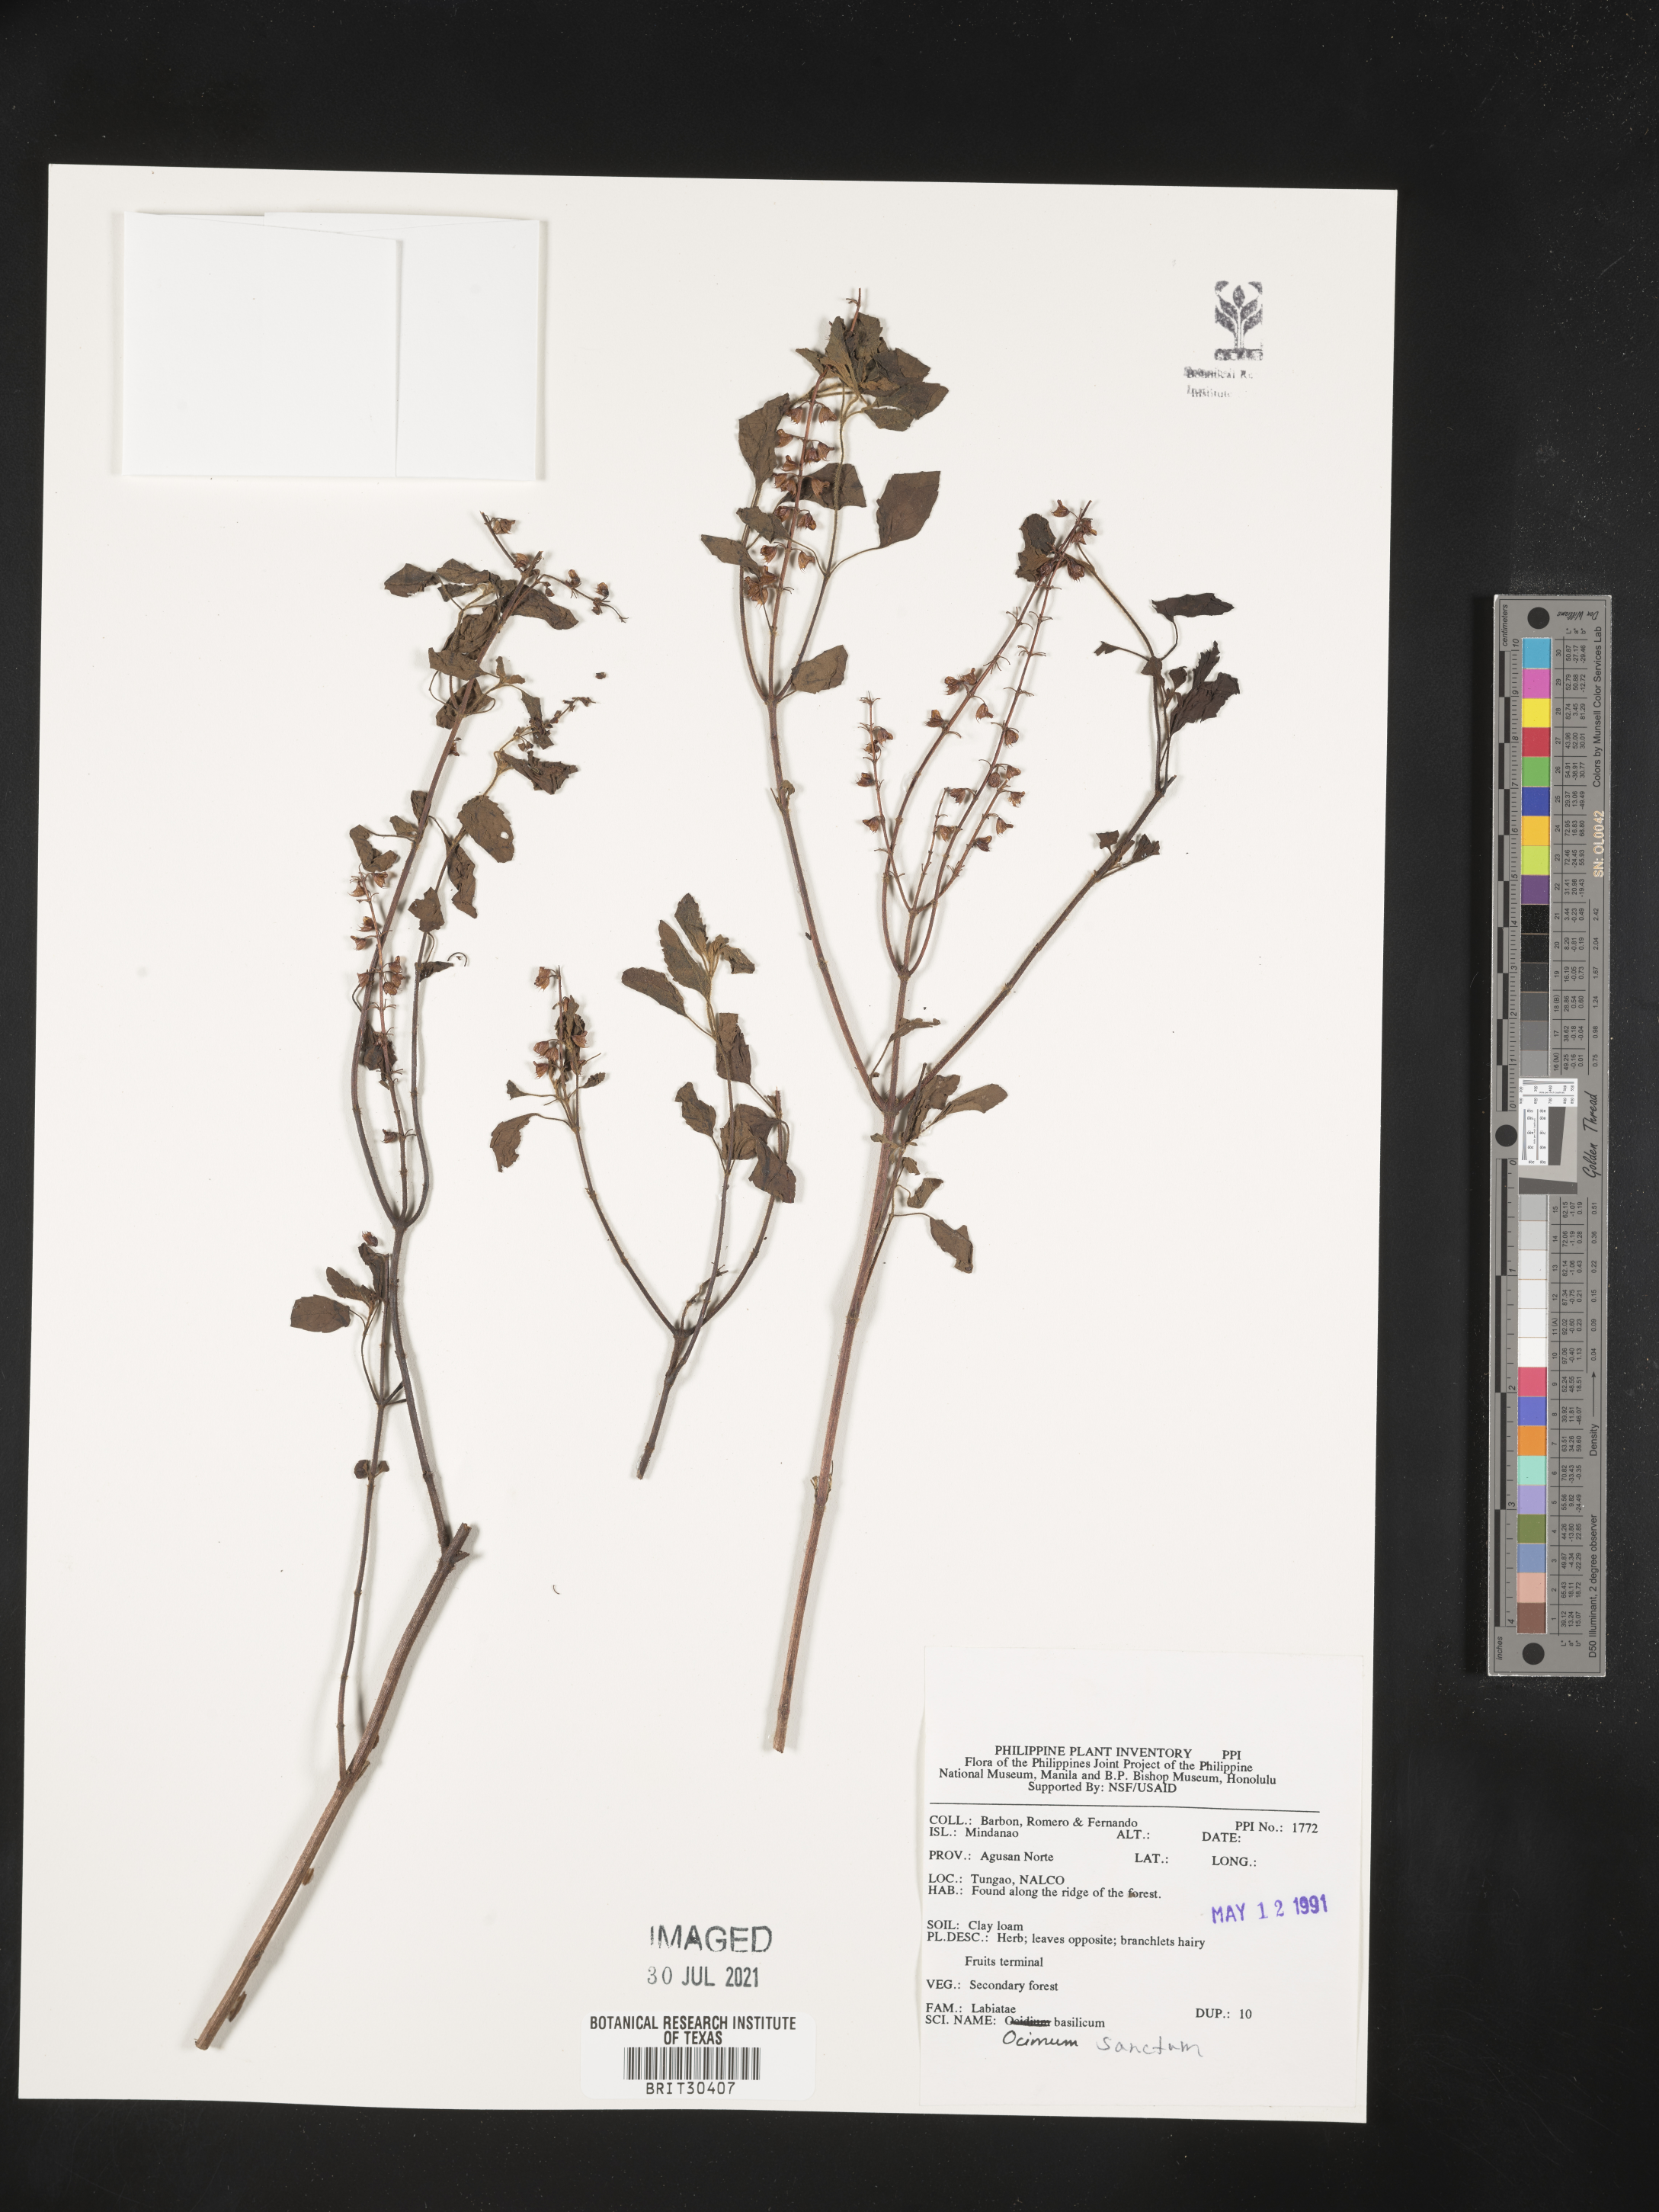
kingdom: Plantae
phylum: Tracheophyta
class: Magnoliopsida
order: Lamiales
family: Lamiaceae
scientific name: Lamiaceae
